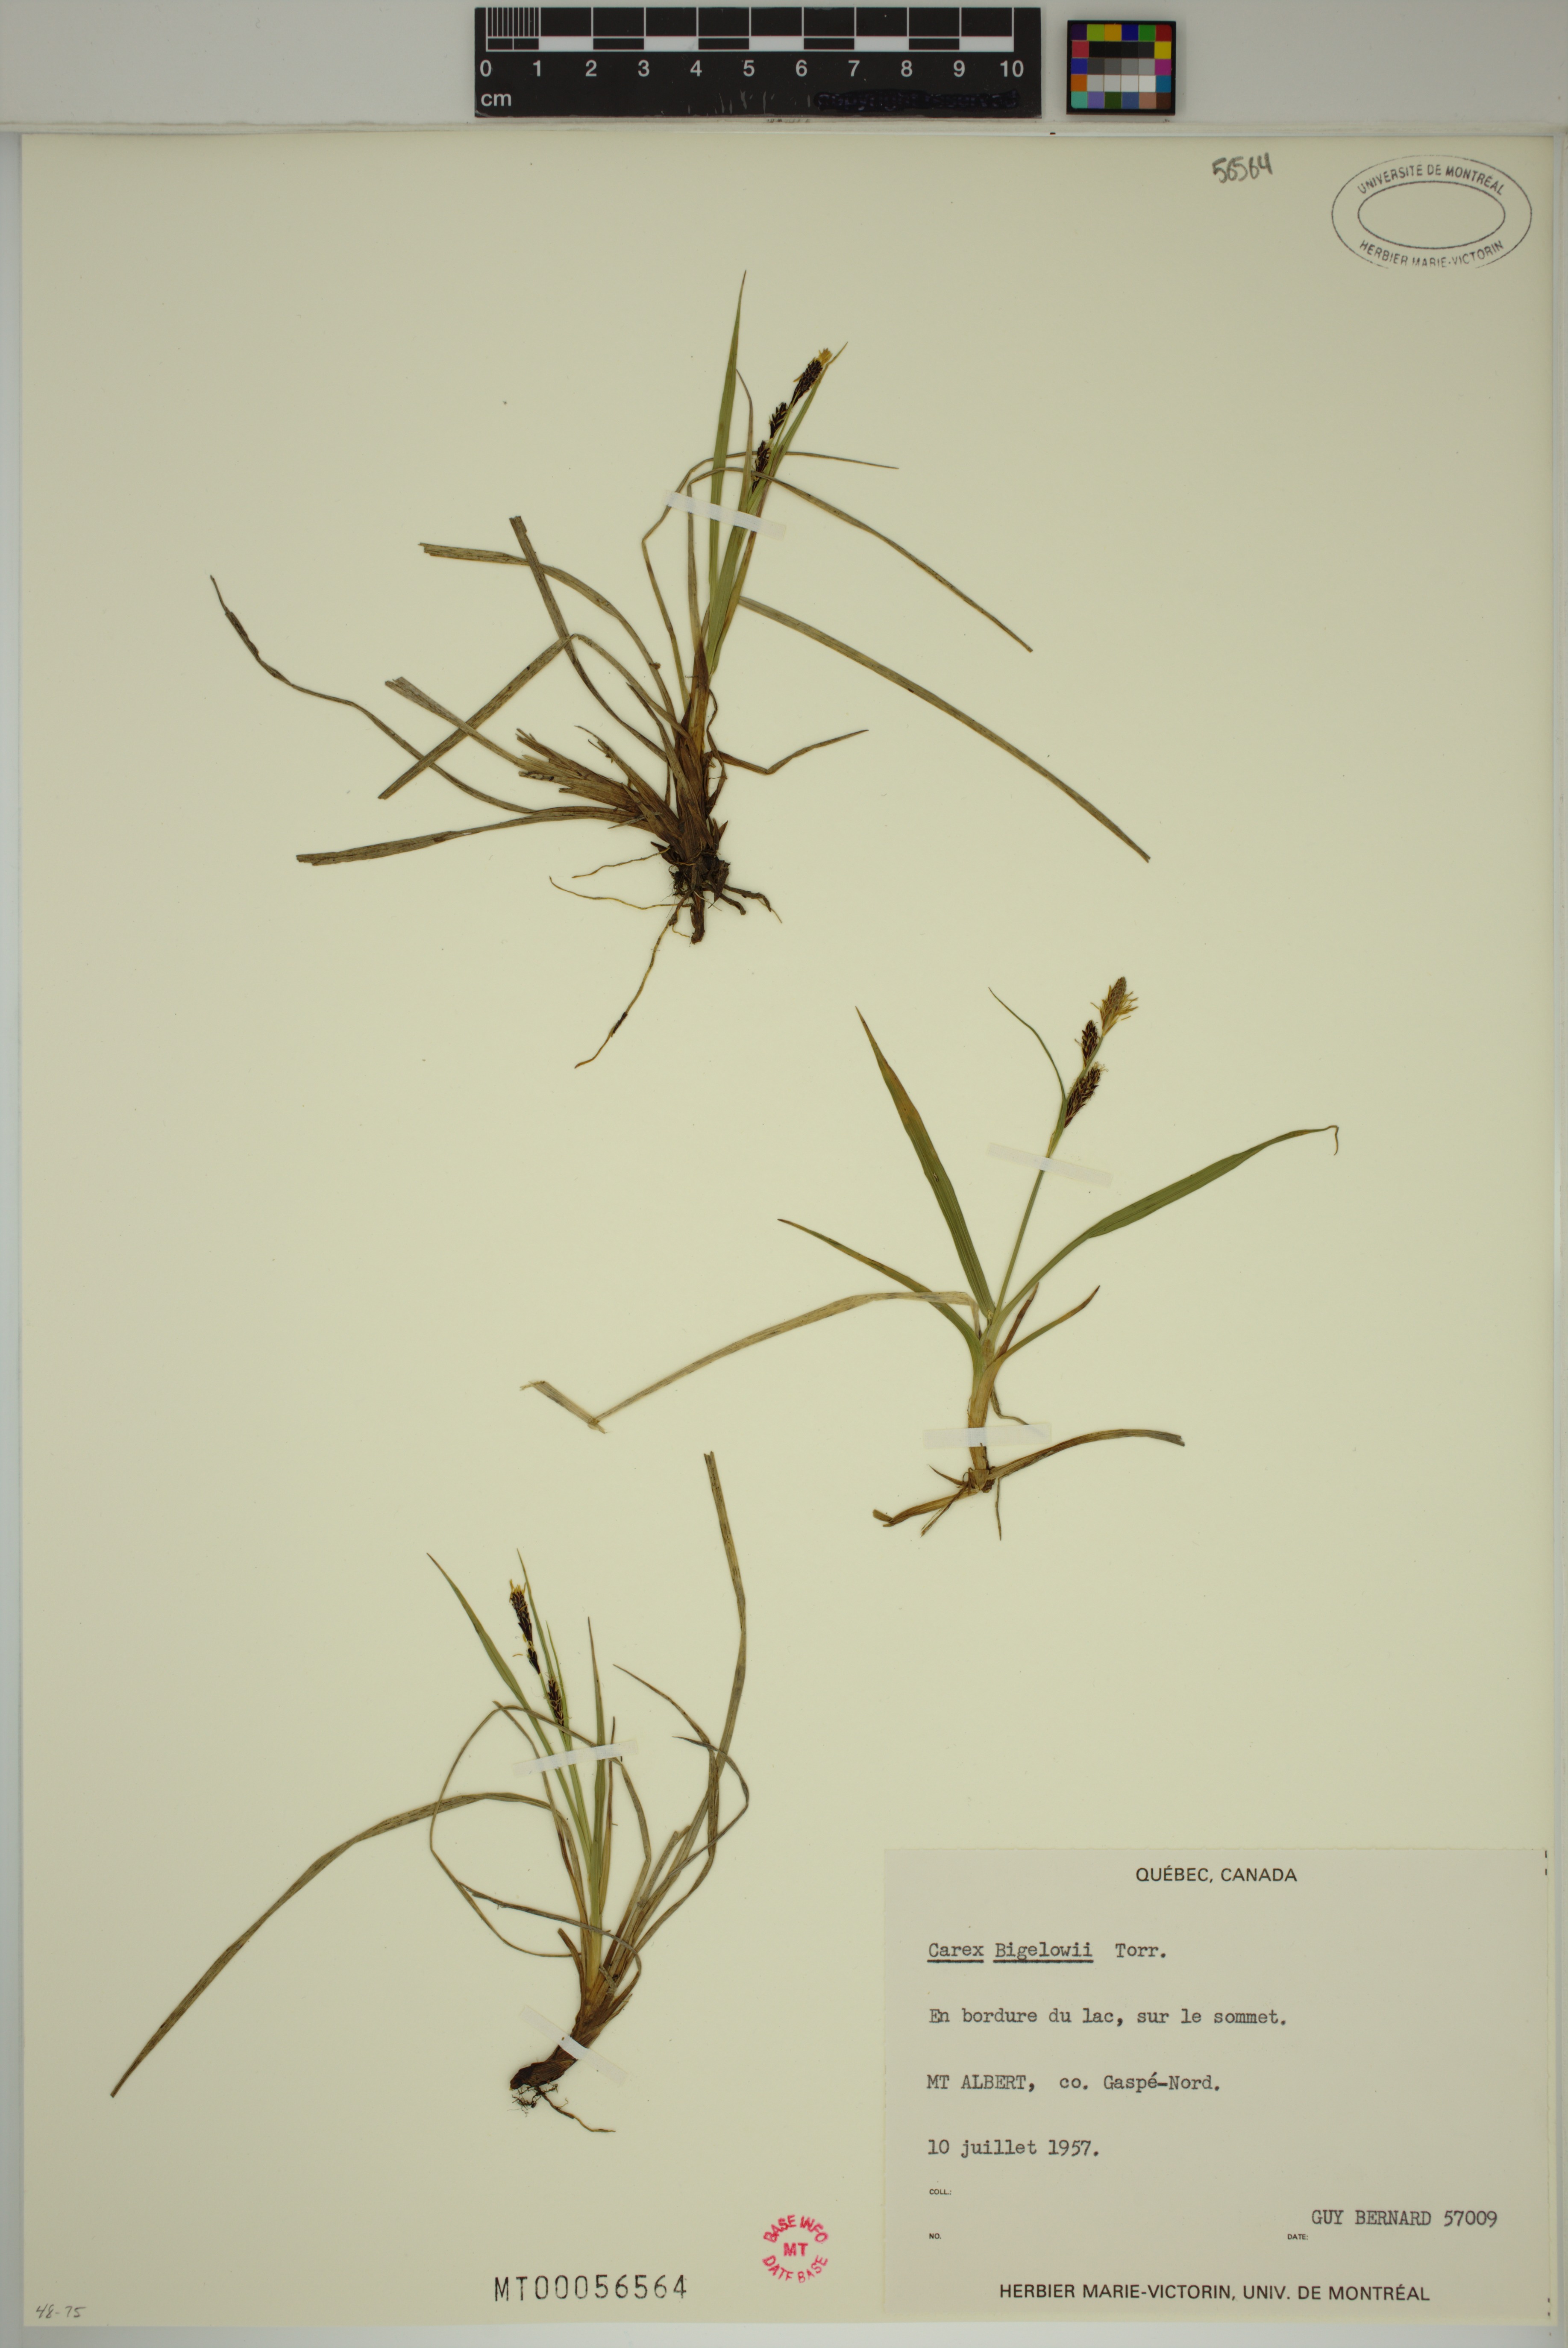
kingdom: Plantae
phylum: Tracheophyta
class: Liliopsida
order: Poales
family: Cyperaceae
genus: Carex
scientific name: Carex bigelowii
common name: Stiff sedge
